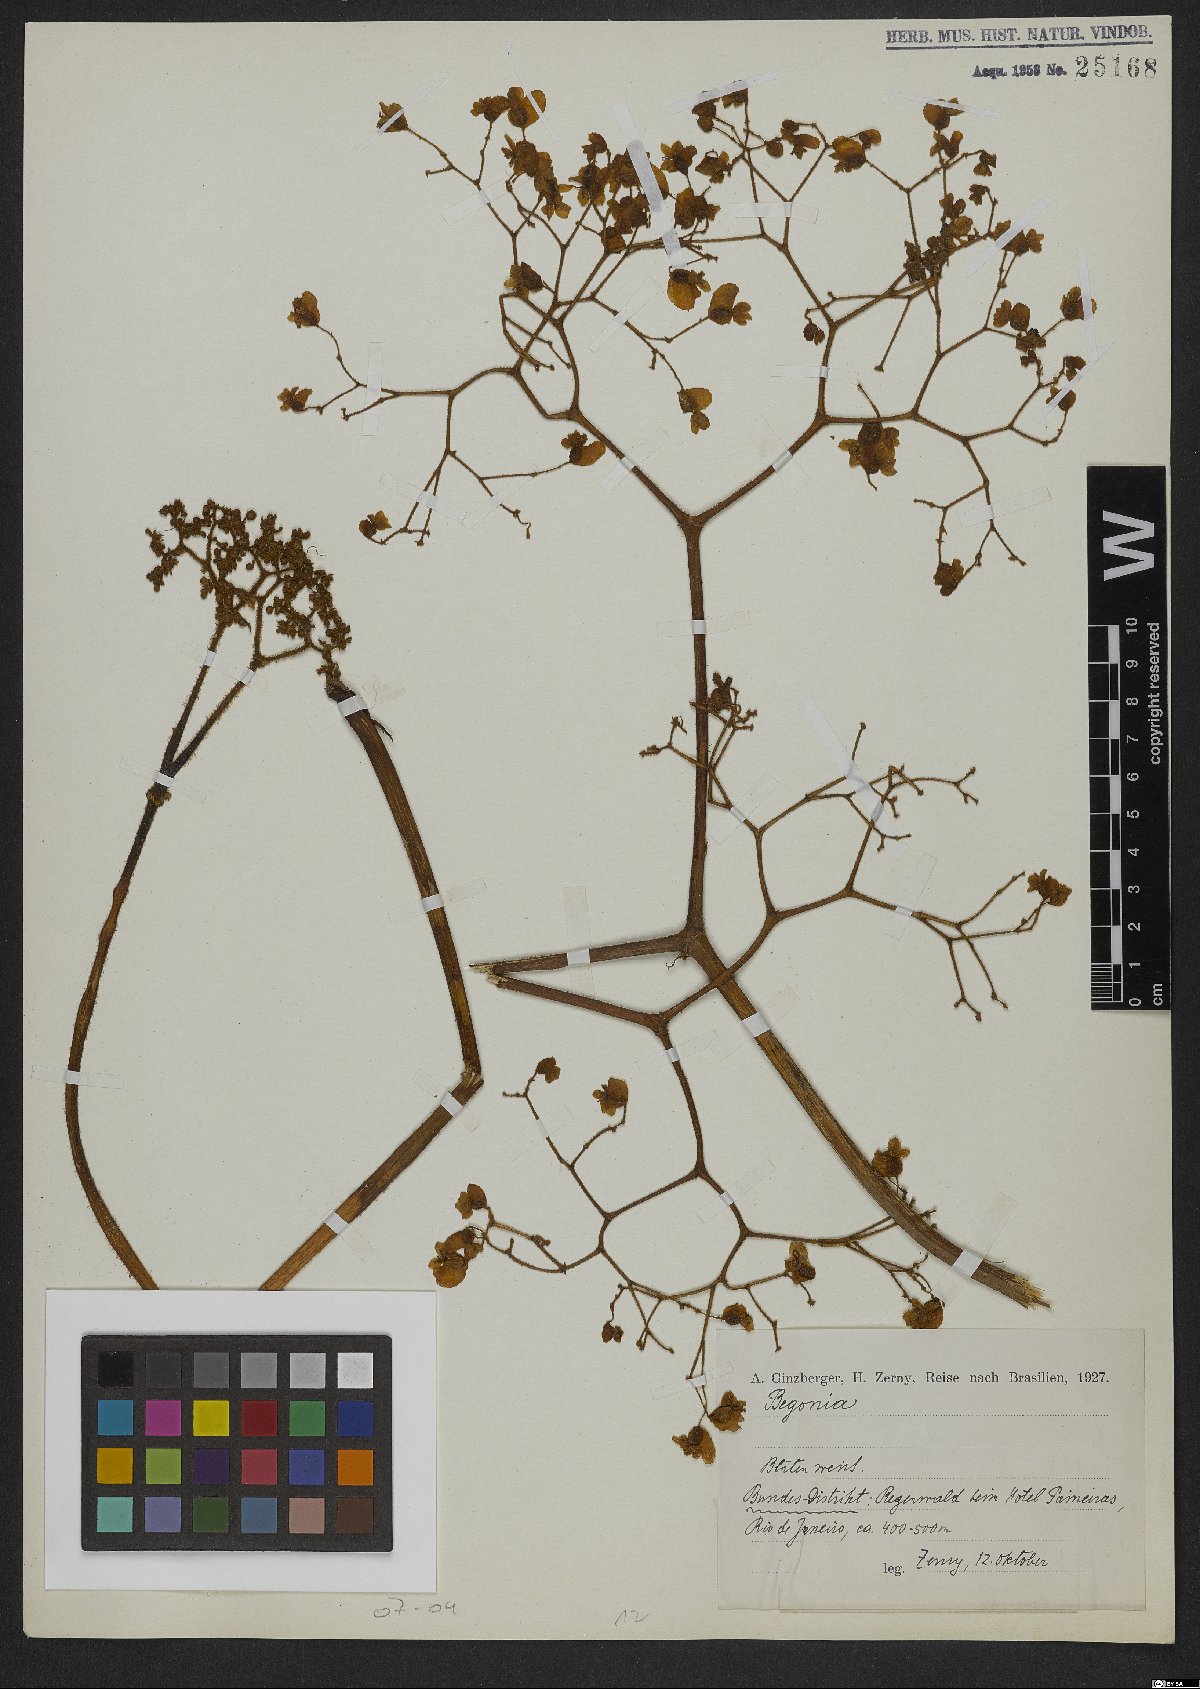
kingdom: Plantae
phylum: Tracheophyta
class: Magnoliopsida
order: Cucurbitales
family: Begoniaceae
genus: Begonia
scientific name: Begonia
